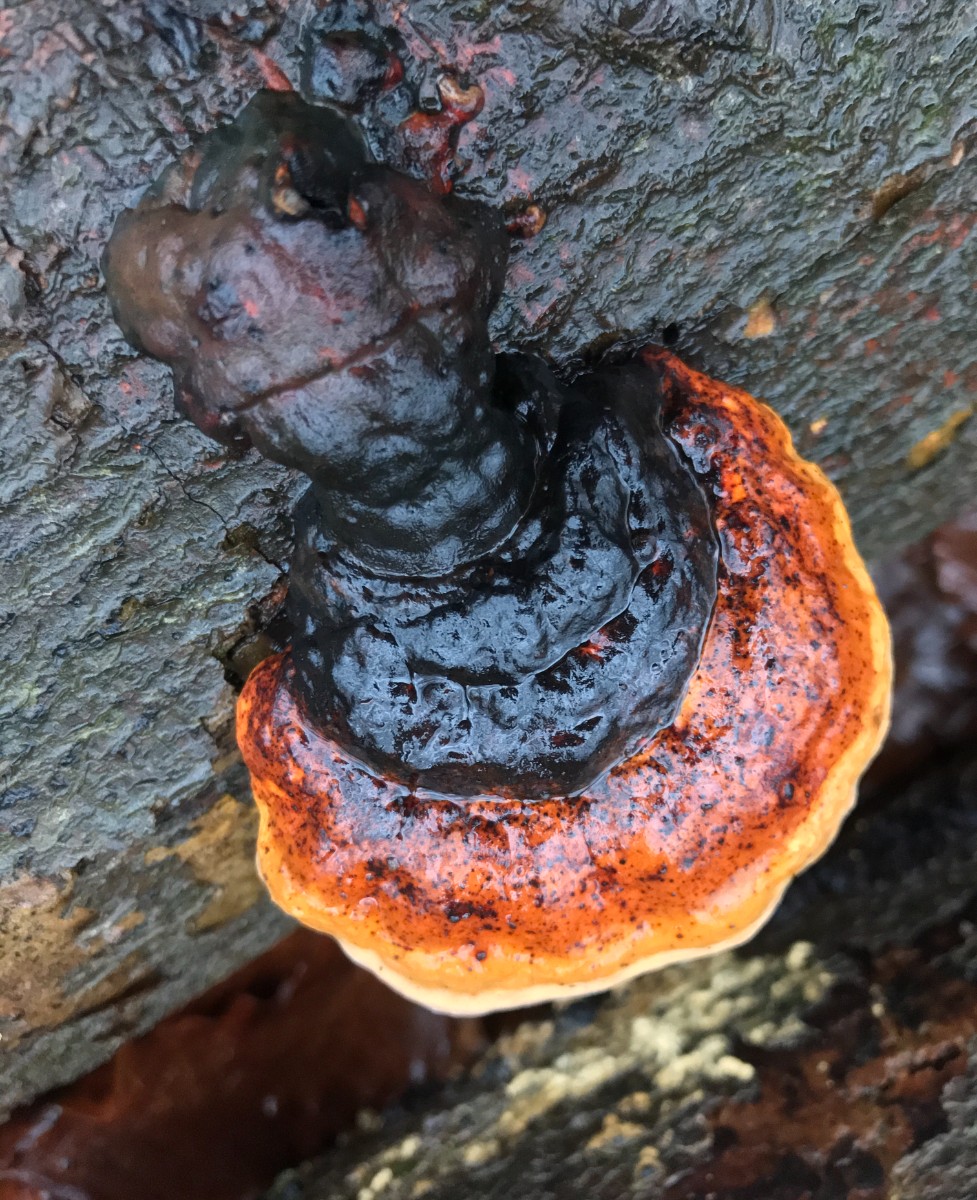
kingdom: Fungi
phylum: Basidiomycota
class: Agaricomycetes
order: Polyporales
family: Fomitopsidaceae
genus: Fomitopsis
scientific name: Fomitopsis pinicola
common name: randbæltet hovporesvamp
